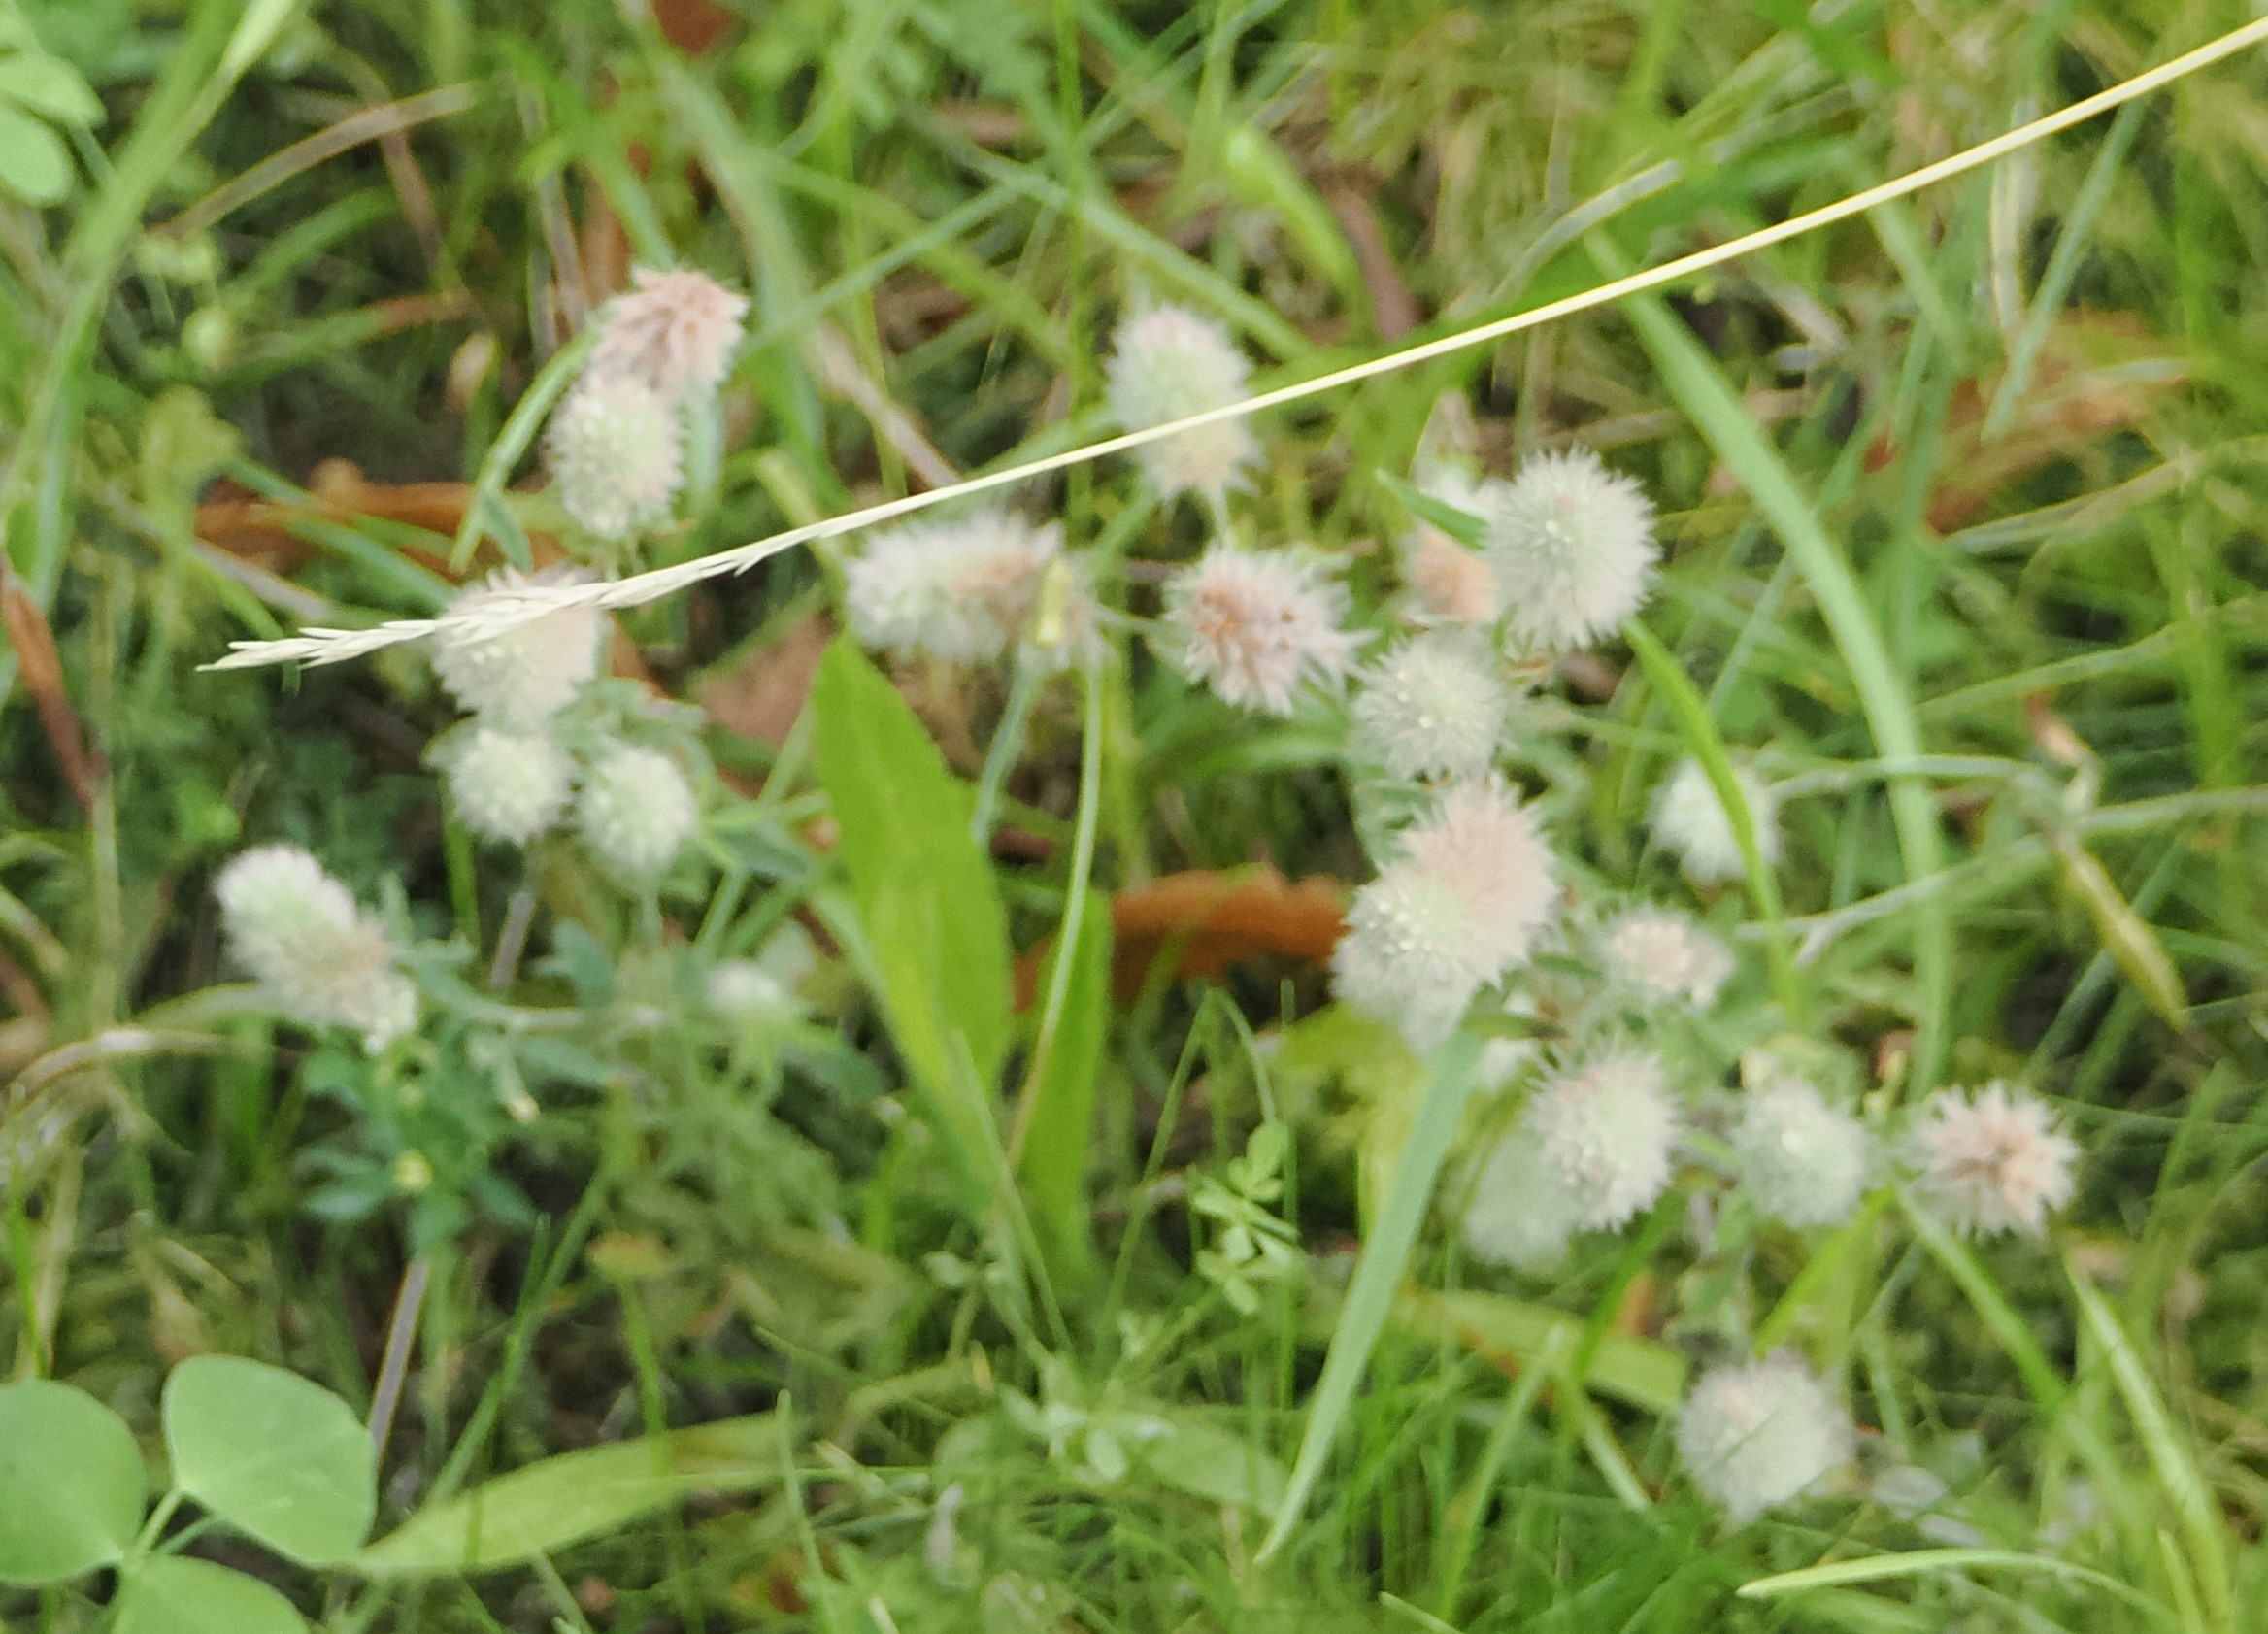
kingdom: Plantae
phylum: Tracheophyta
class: Magnoliopsida
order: Fabales
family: Fabaceae
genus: Trifolium
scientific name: Trifolium arvense
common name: Hare-kløver
